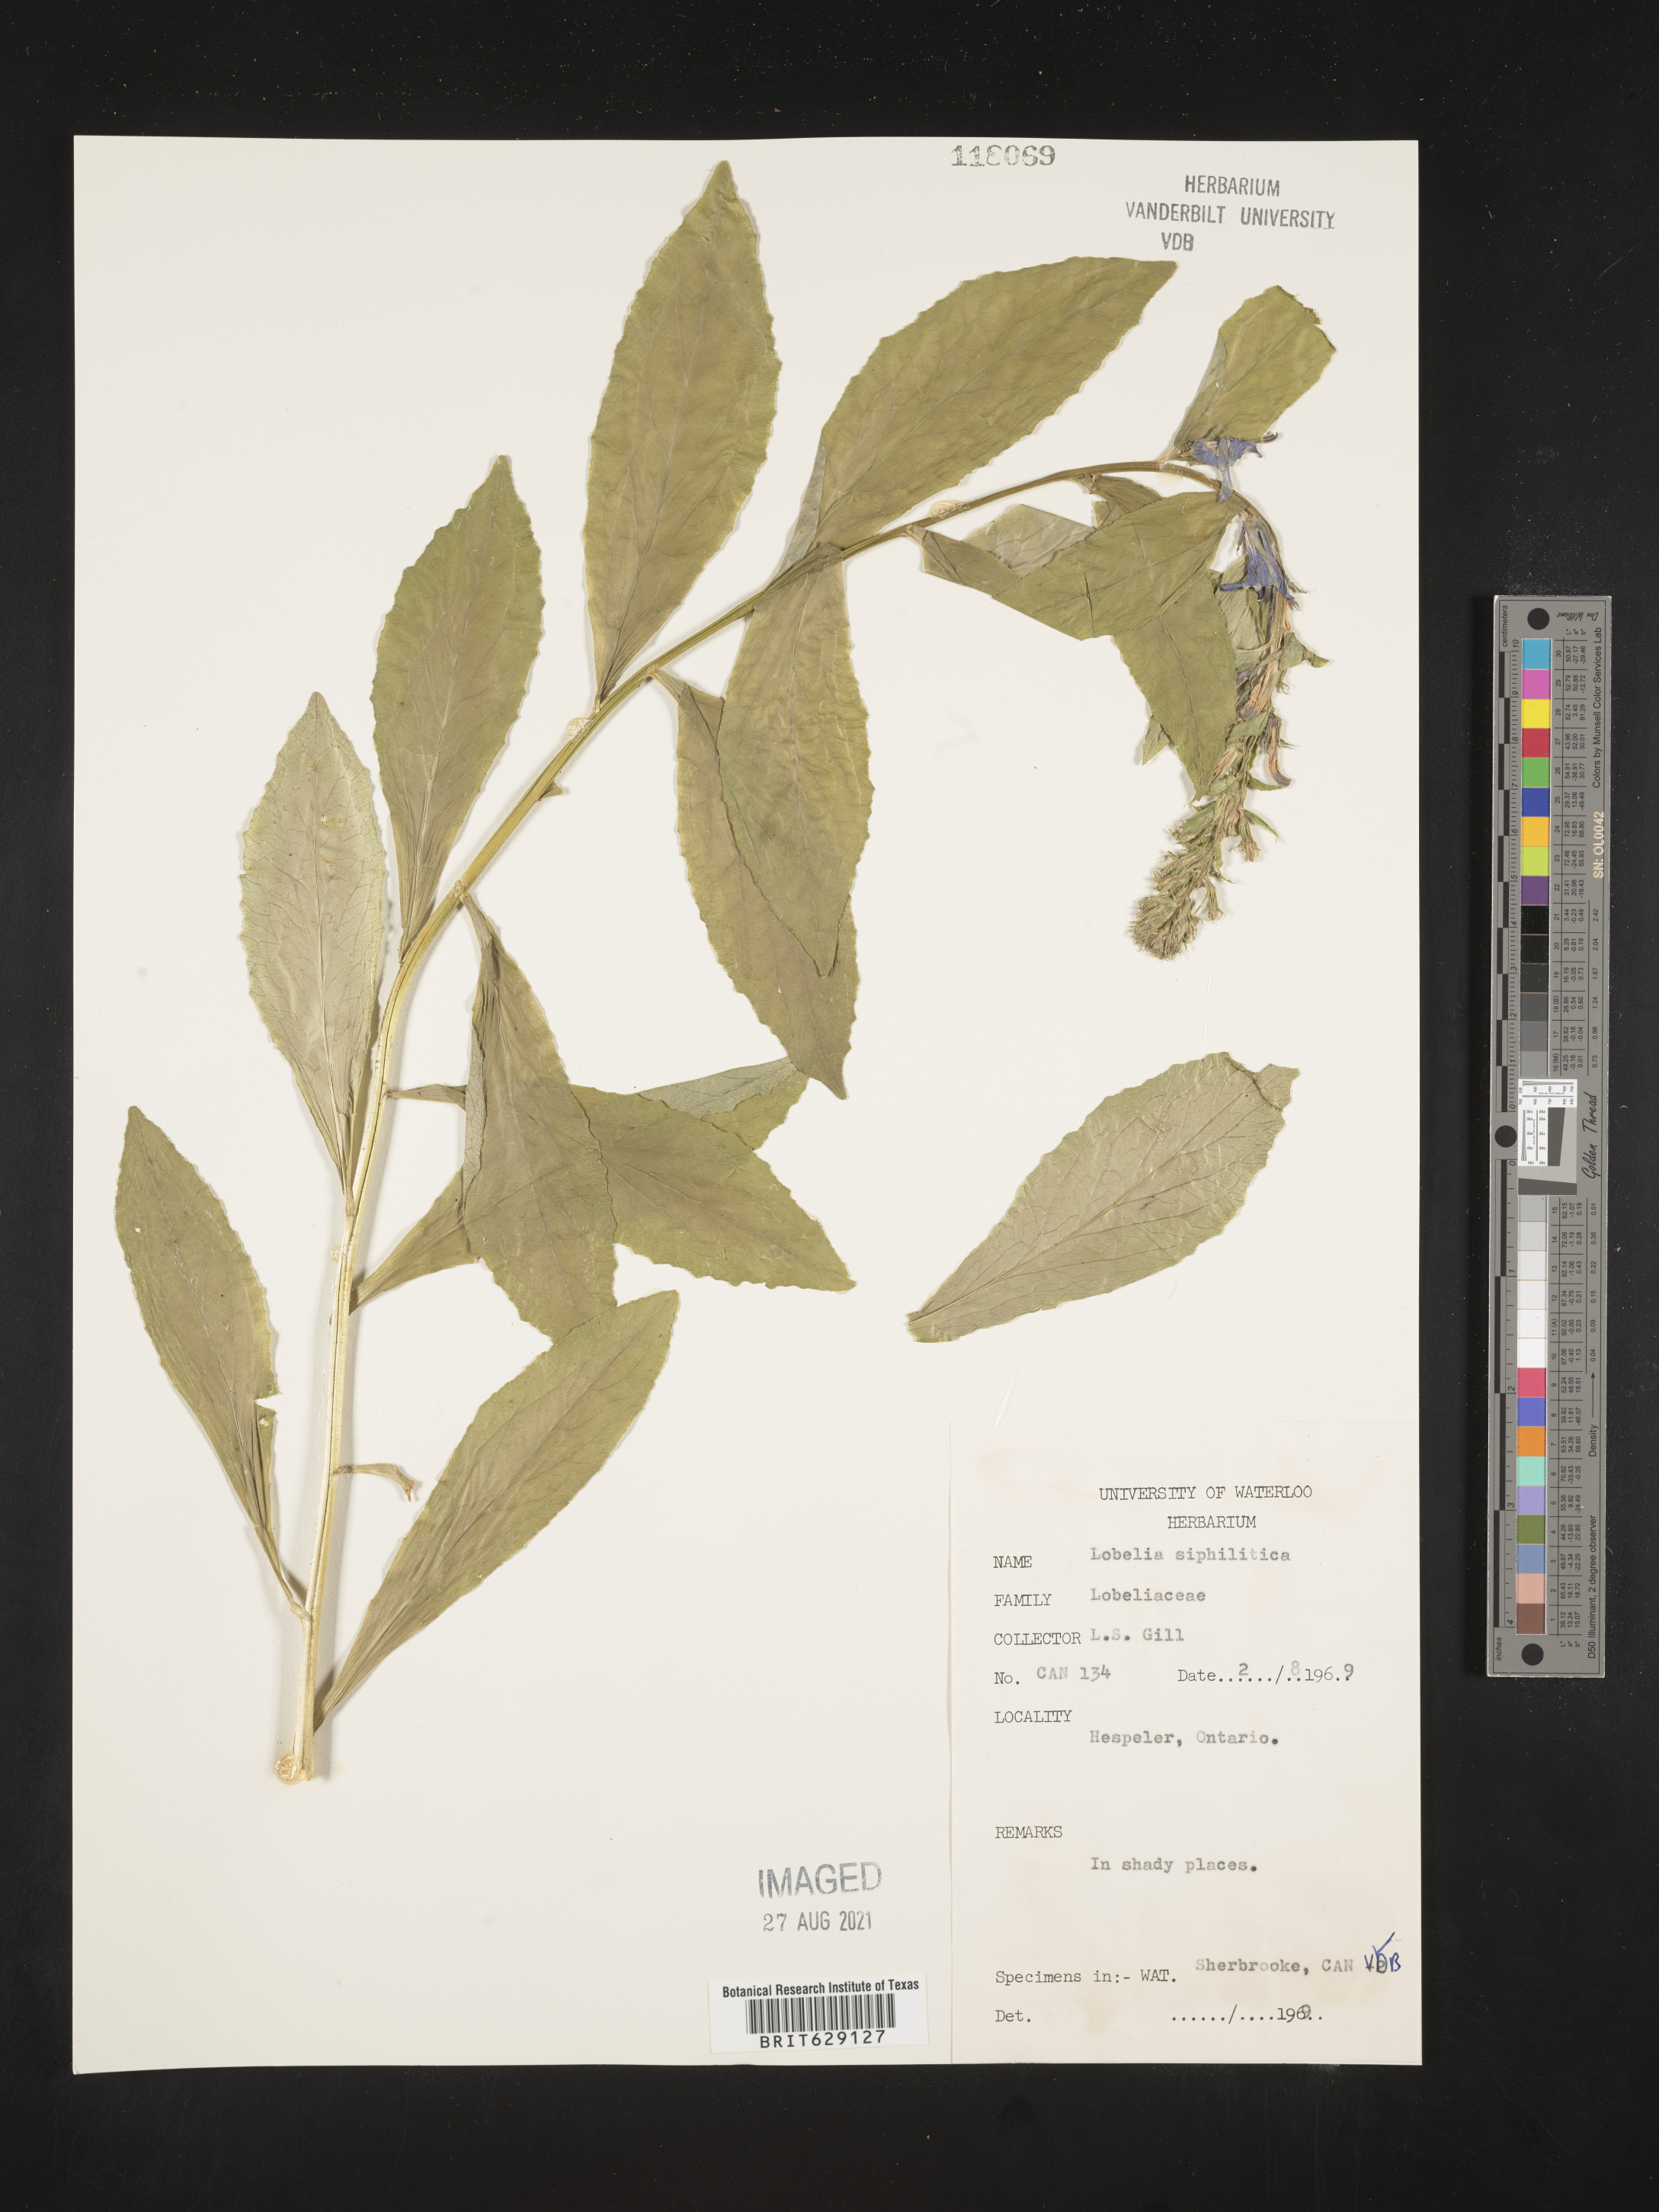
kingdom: Plantae
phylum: Tracheophyta
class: Magnoliopsida
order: Asterales
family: Campanulaceae
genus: Lobelia
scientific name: Lobelia siphilitica
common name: Great lobelia
